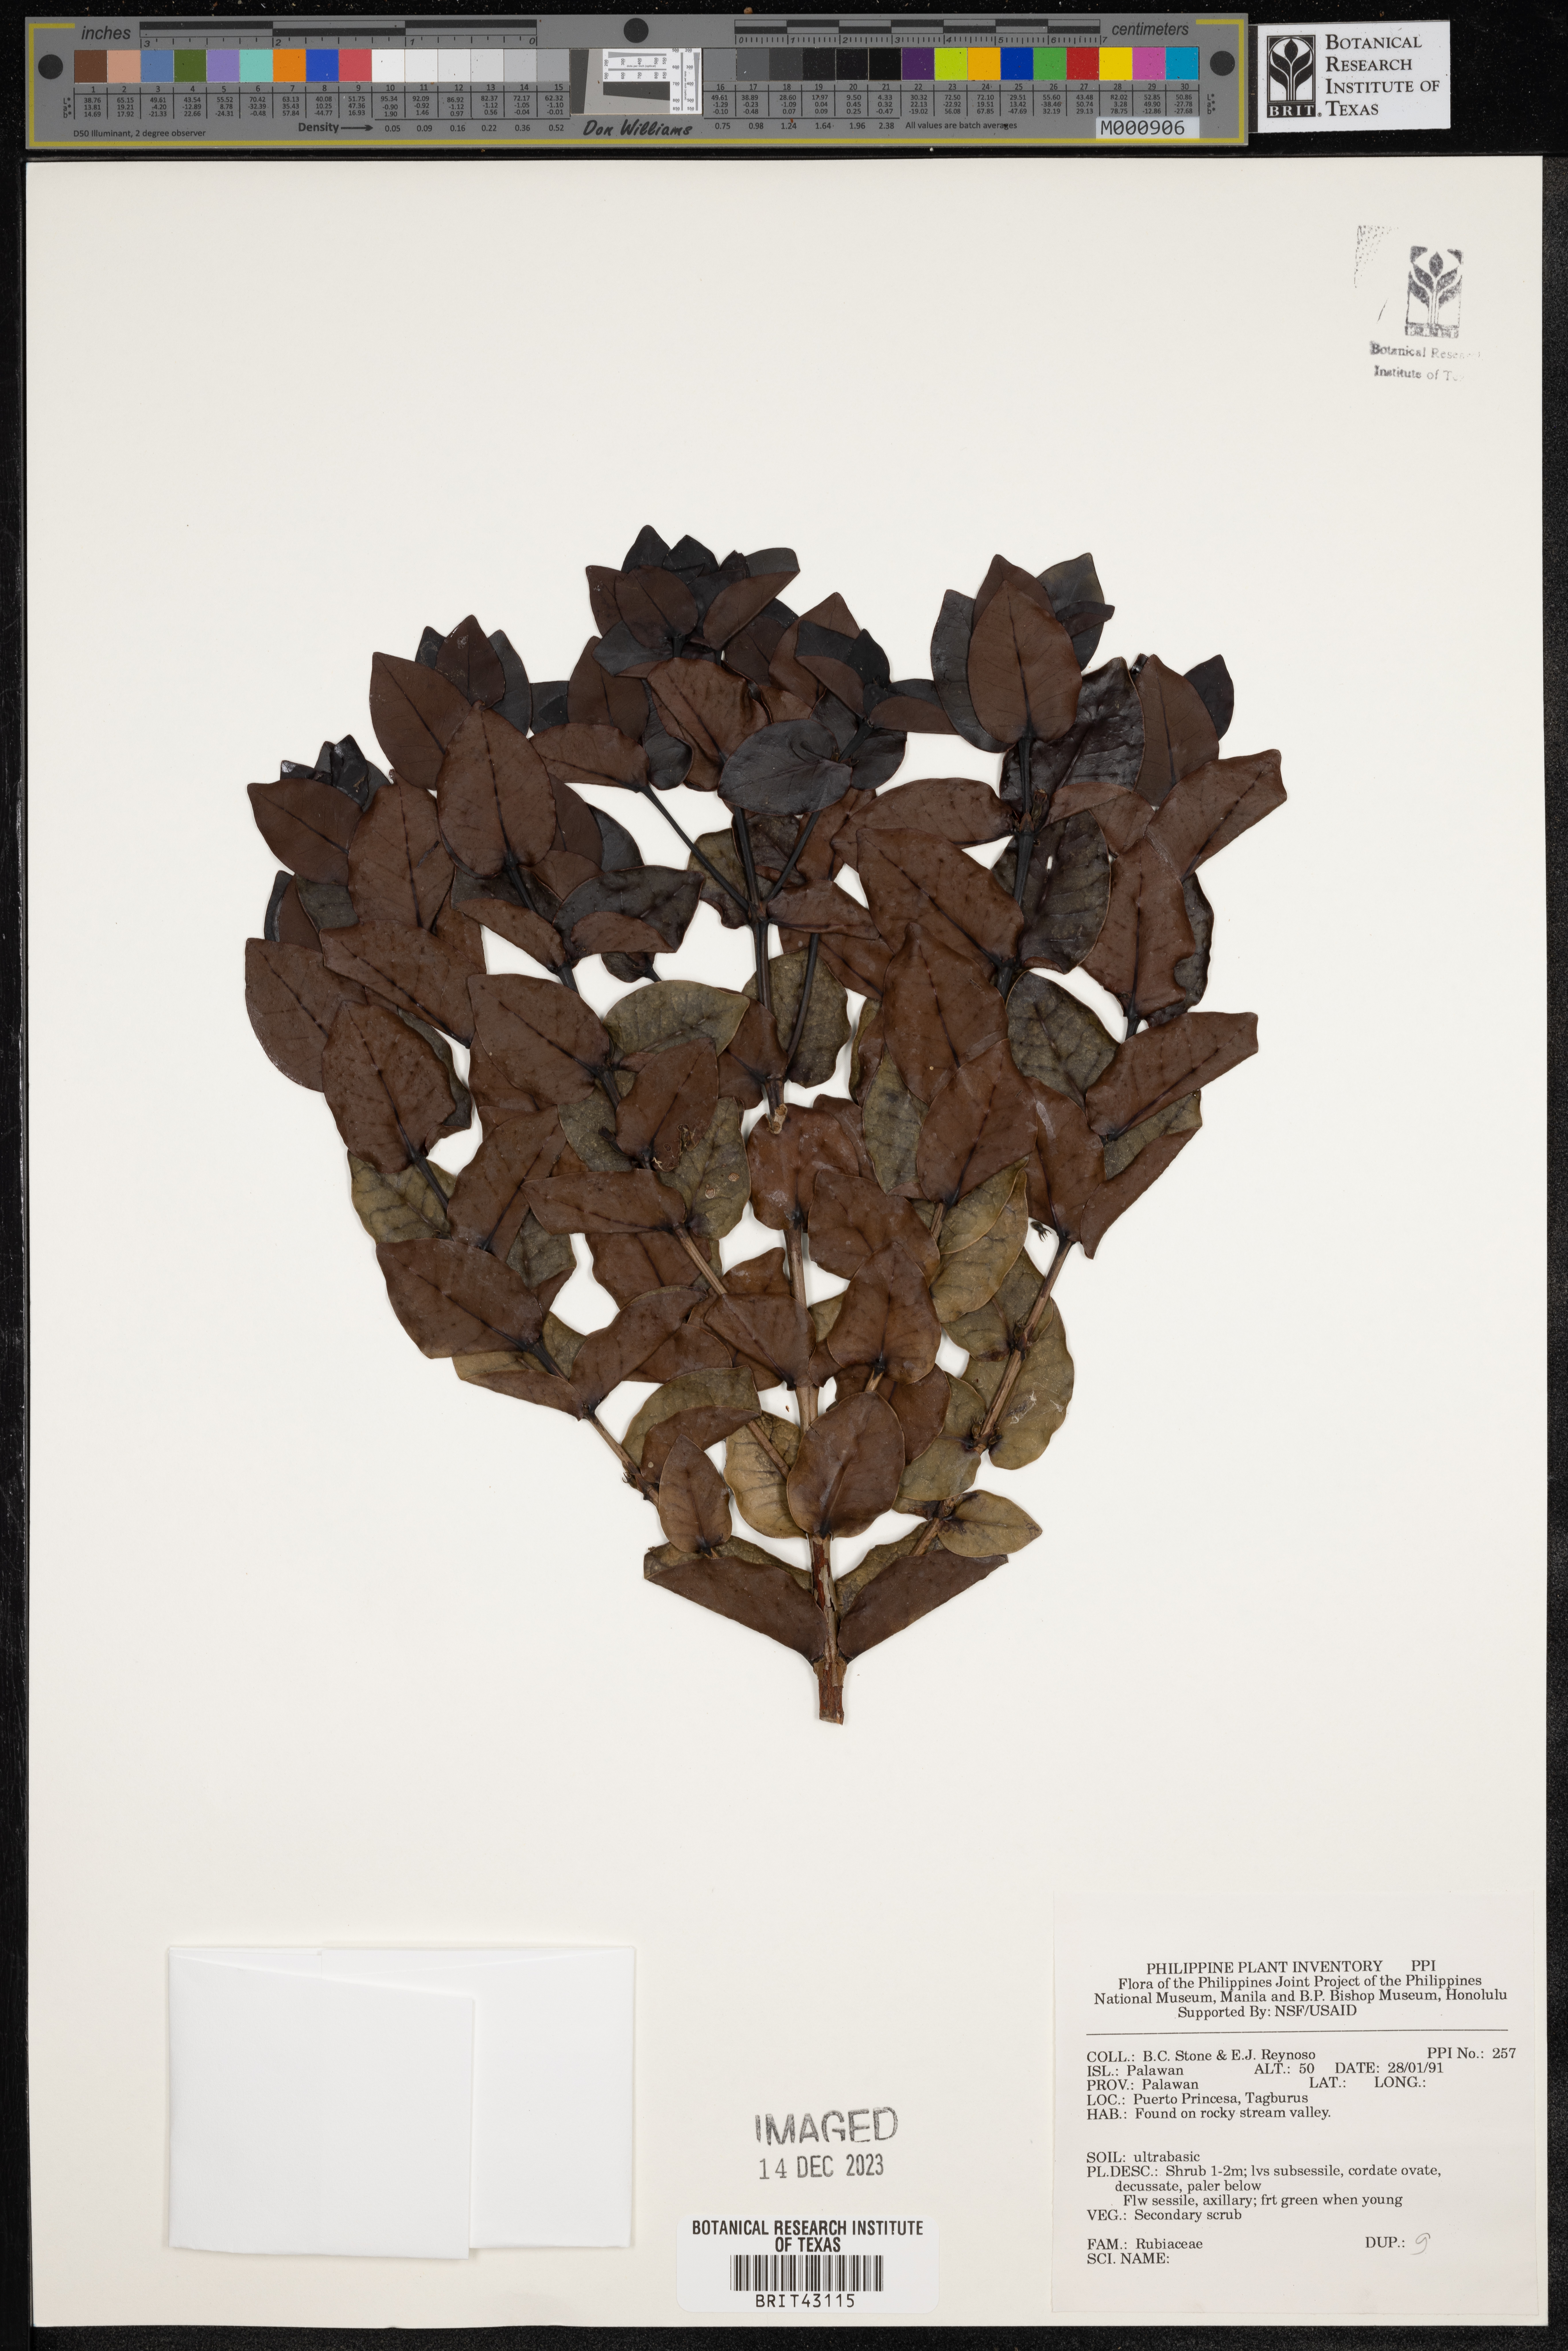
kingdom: Plantae
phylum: Tracheophyta
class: Magnoliopsida
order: Gentianales
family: Rubiaceae
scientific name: Rubiaceae
